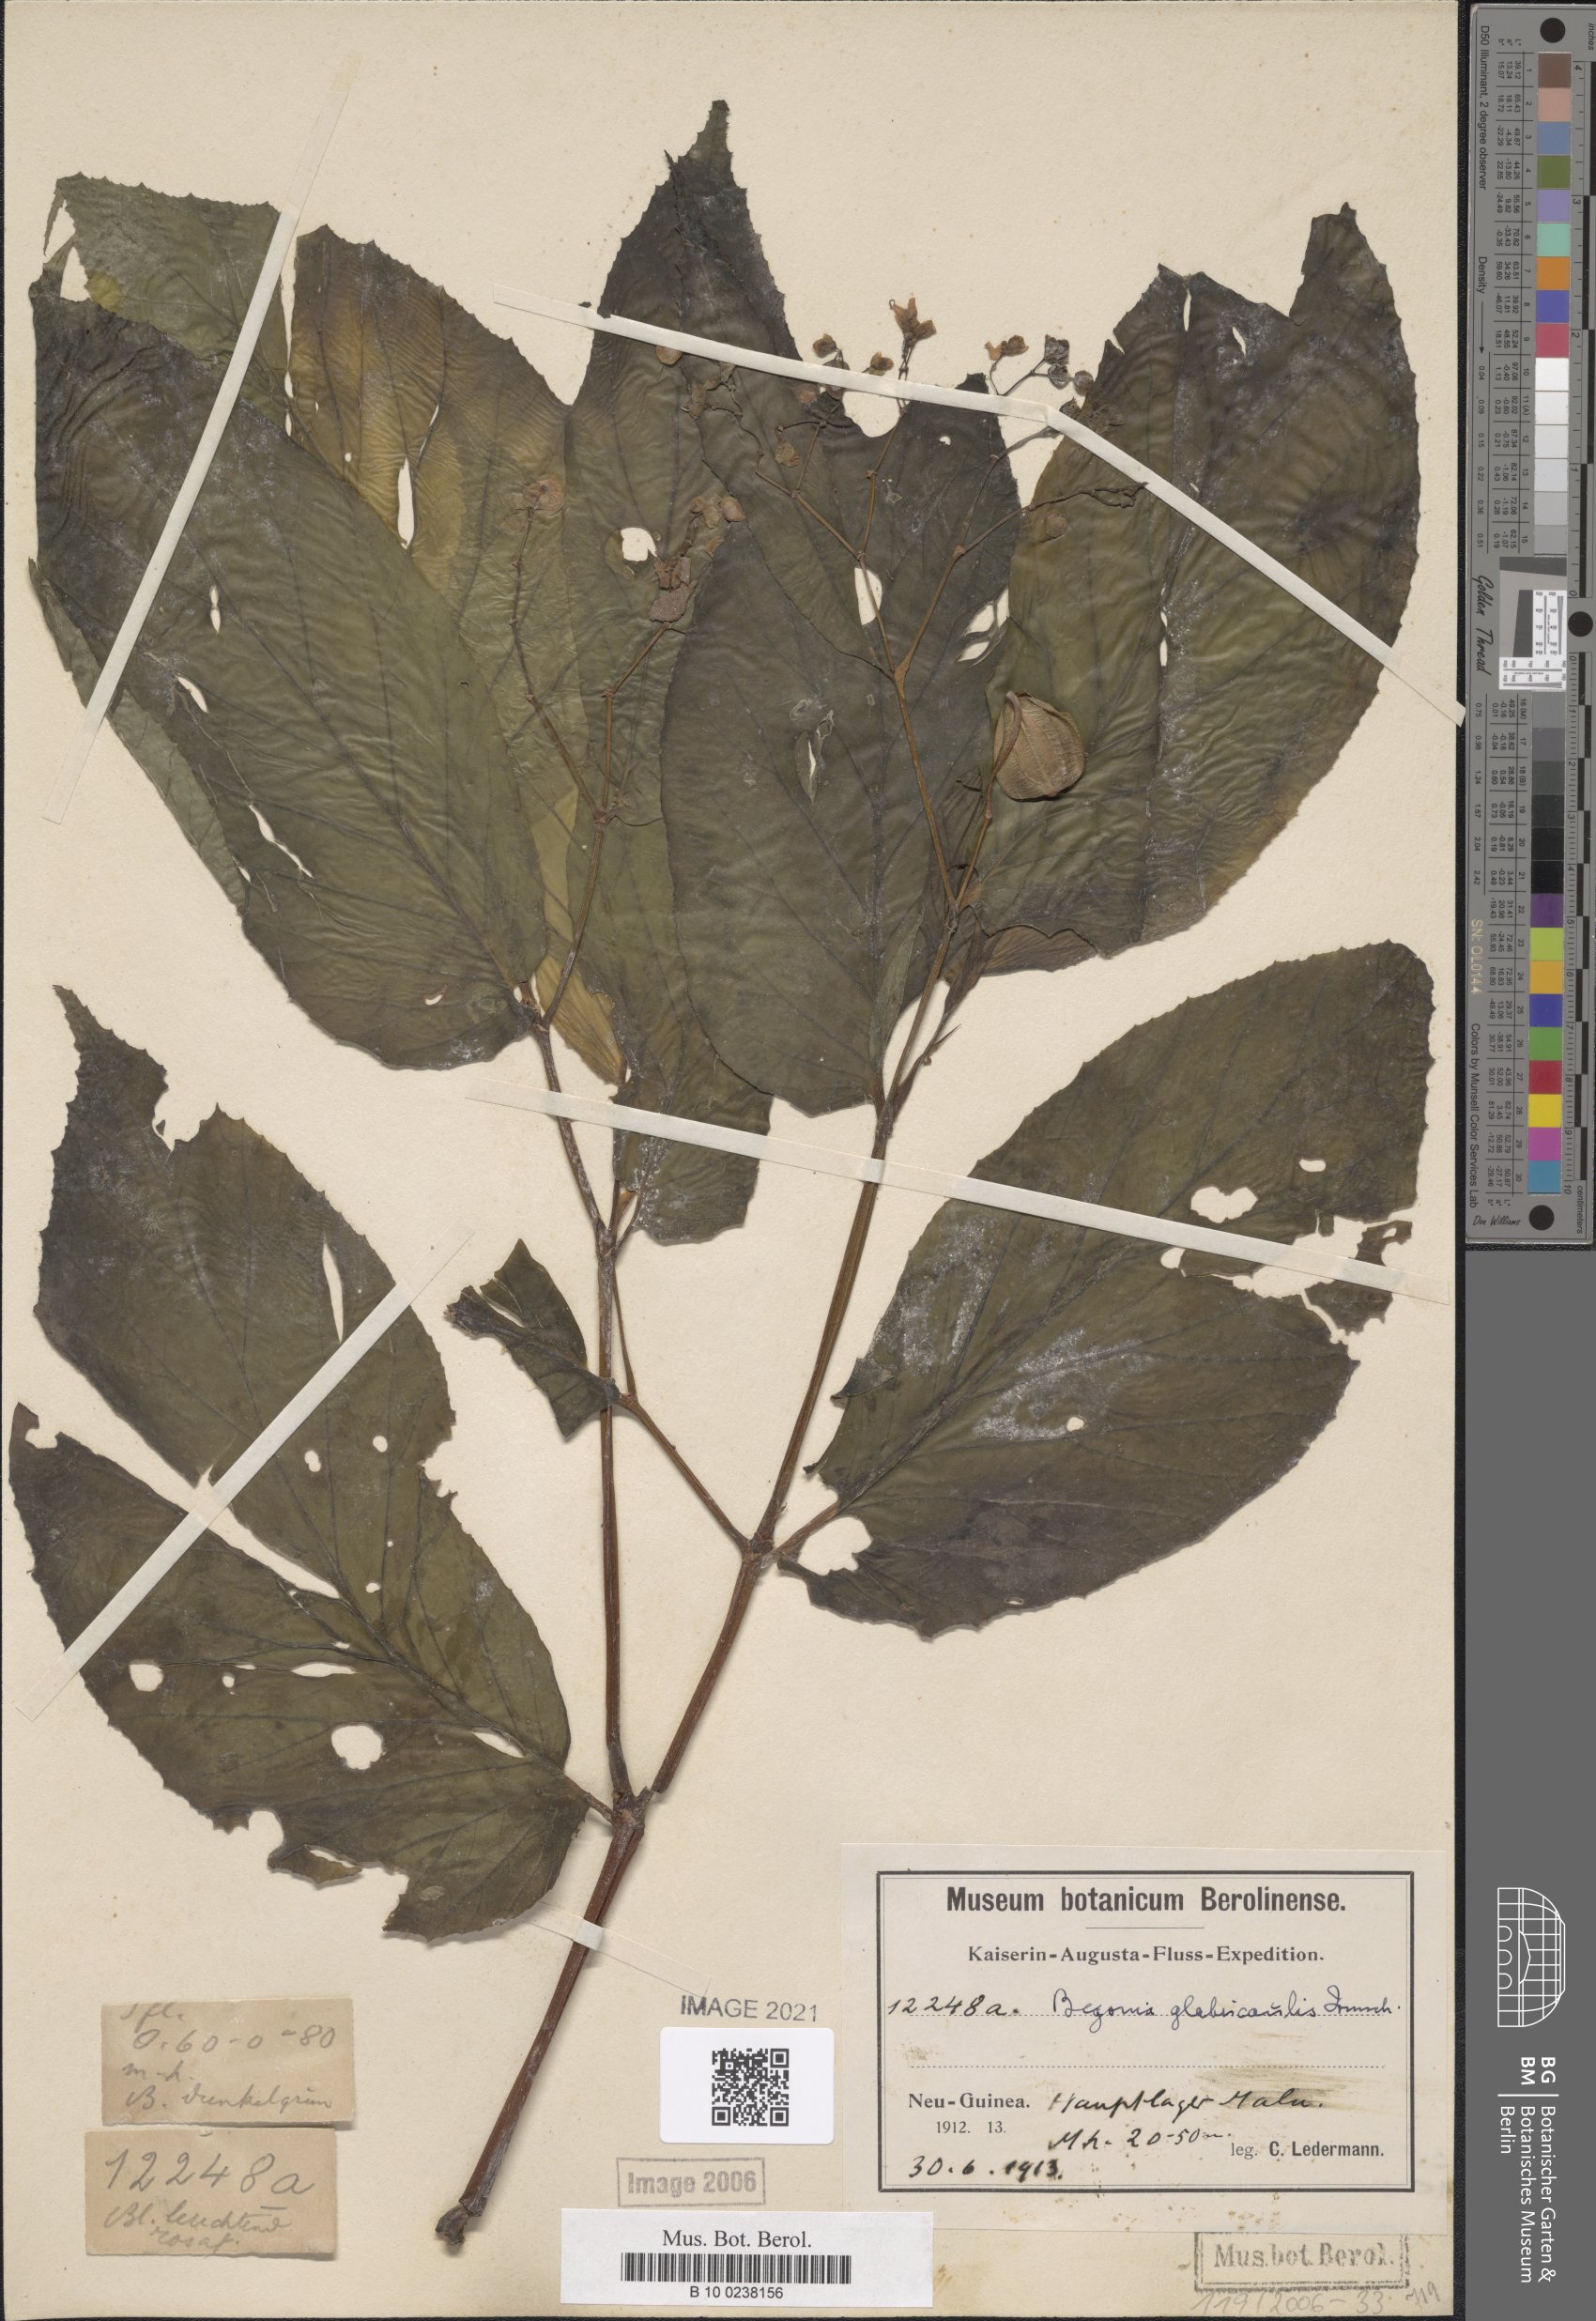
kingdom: Plantae
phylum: Tracheophyta
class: Magnoliopsida
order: Cucurbitales
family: Begoniaceae
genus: Begonia
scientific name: Begonia glabricaulis
